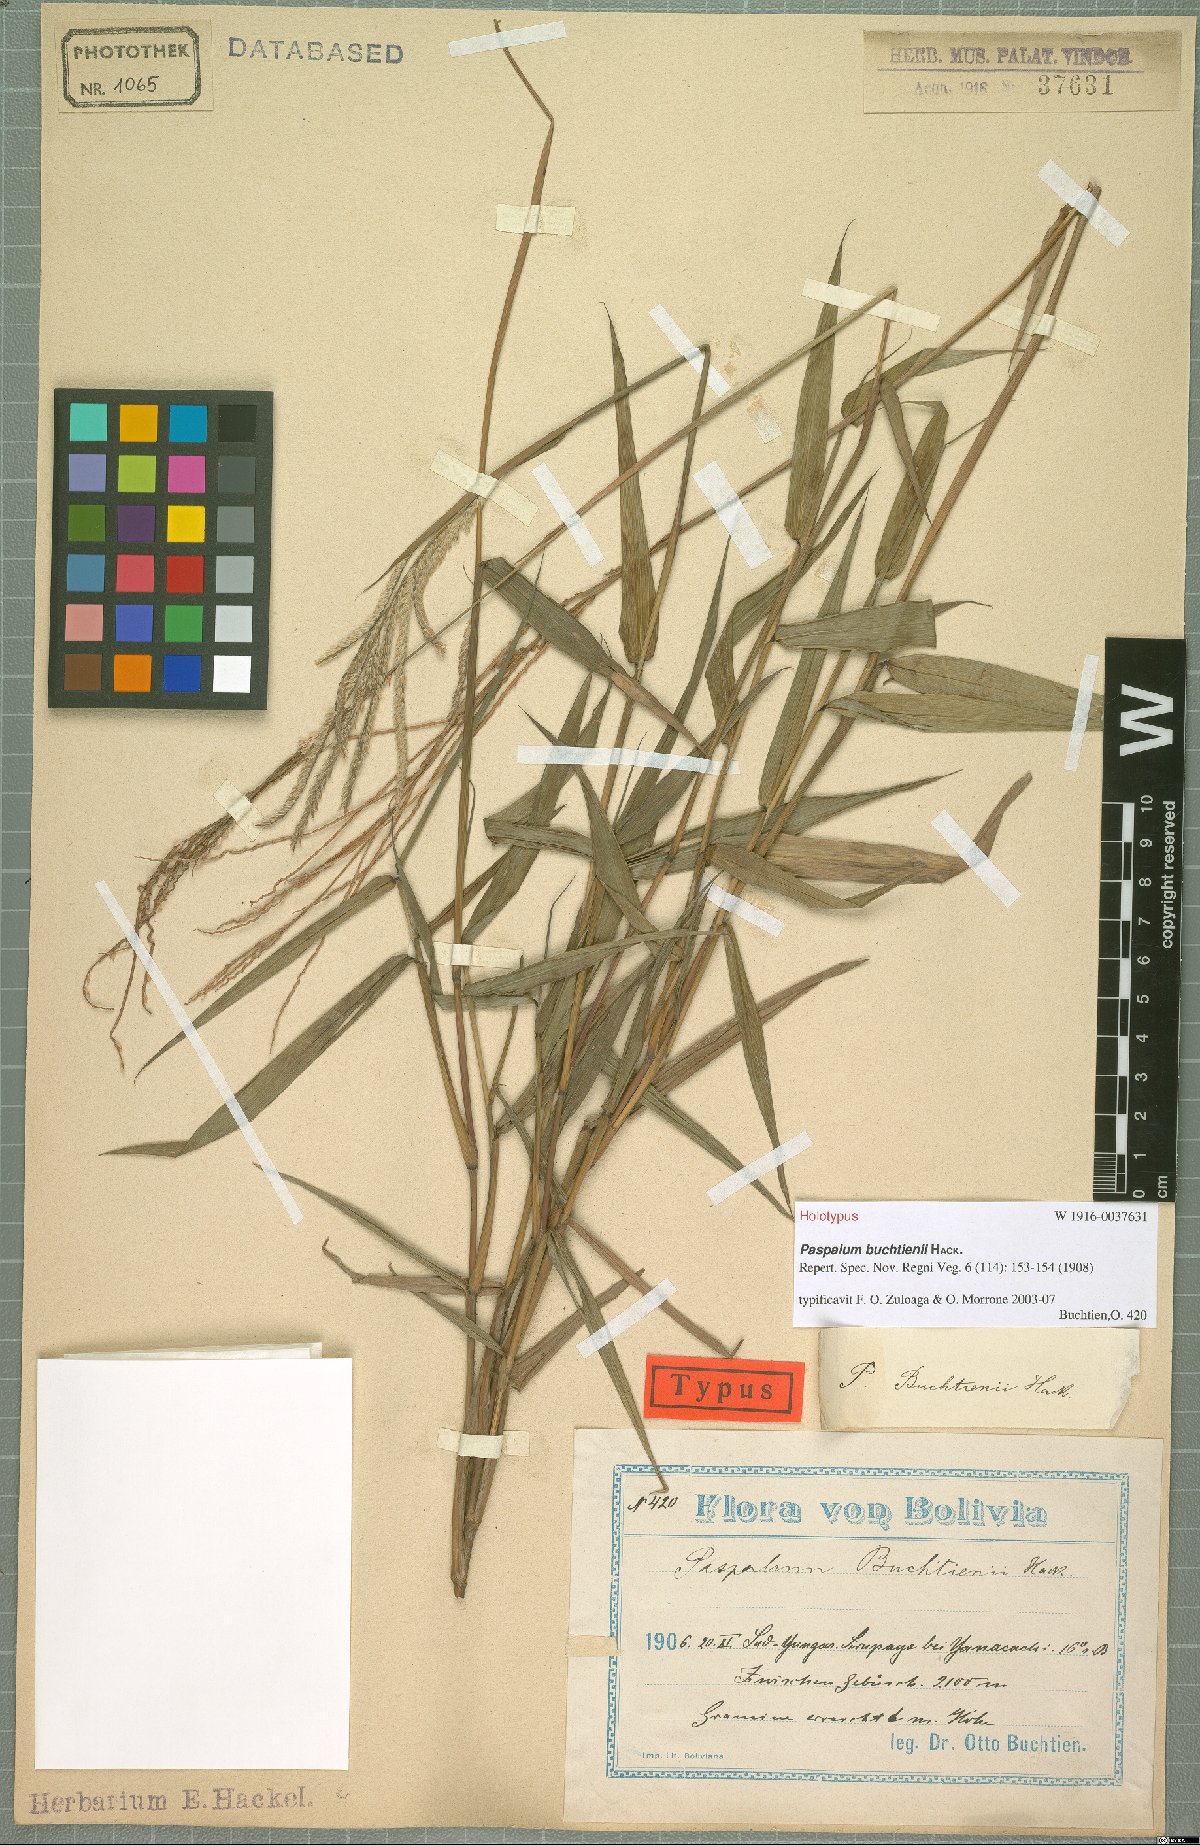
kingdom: Plantae
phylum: Tracheophyta
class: Liliopsida
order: Poales
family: Poaceae
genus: Paspalum
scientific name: Paspalum buchtienii
